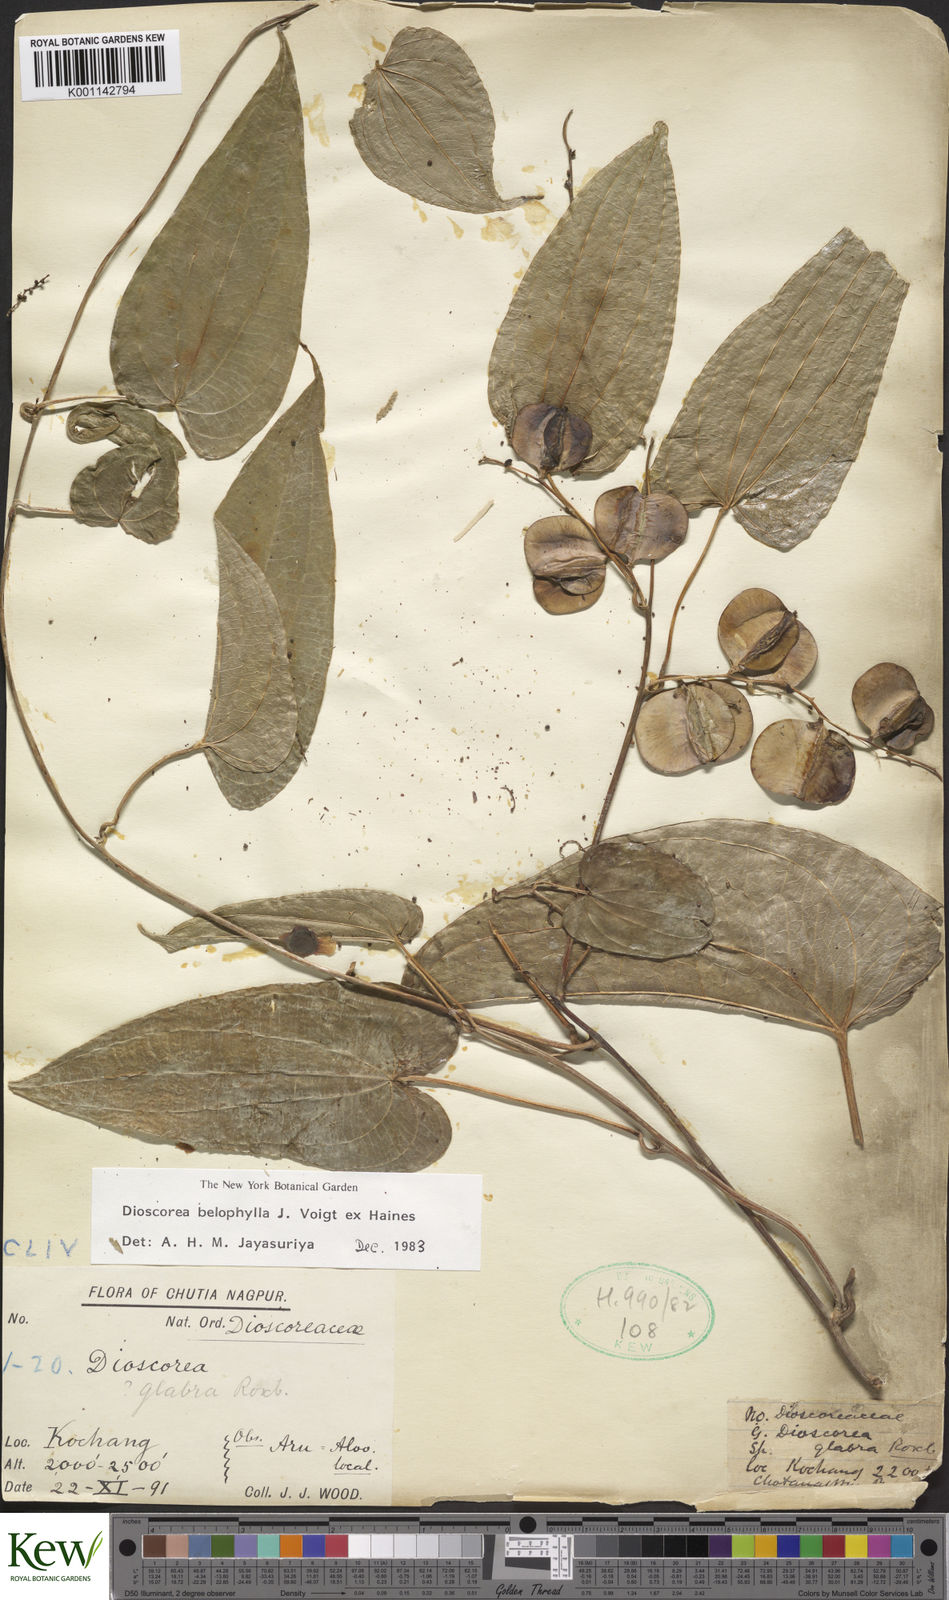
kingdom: Plantae
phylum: Tracheophyta
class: Liliopsida
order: Dioscoreales
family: Dioscoreaceae
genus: Dioscorea
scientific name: Dioscorea belophylla
